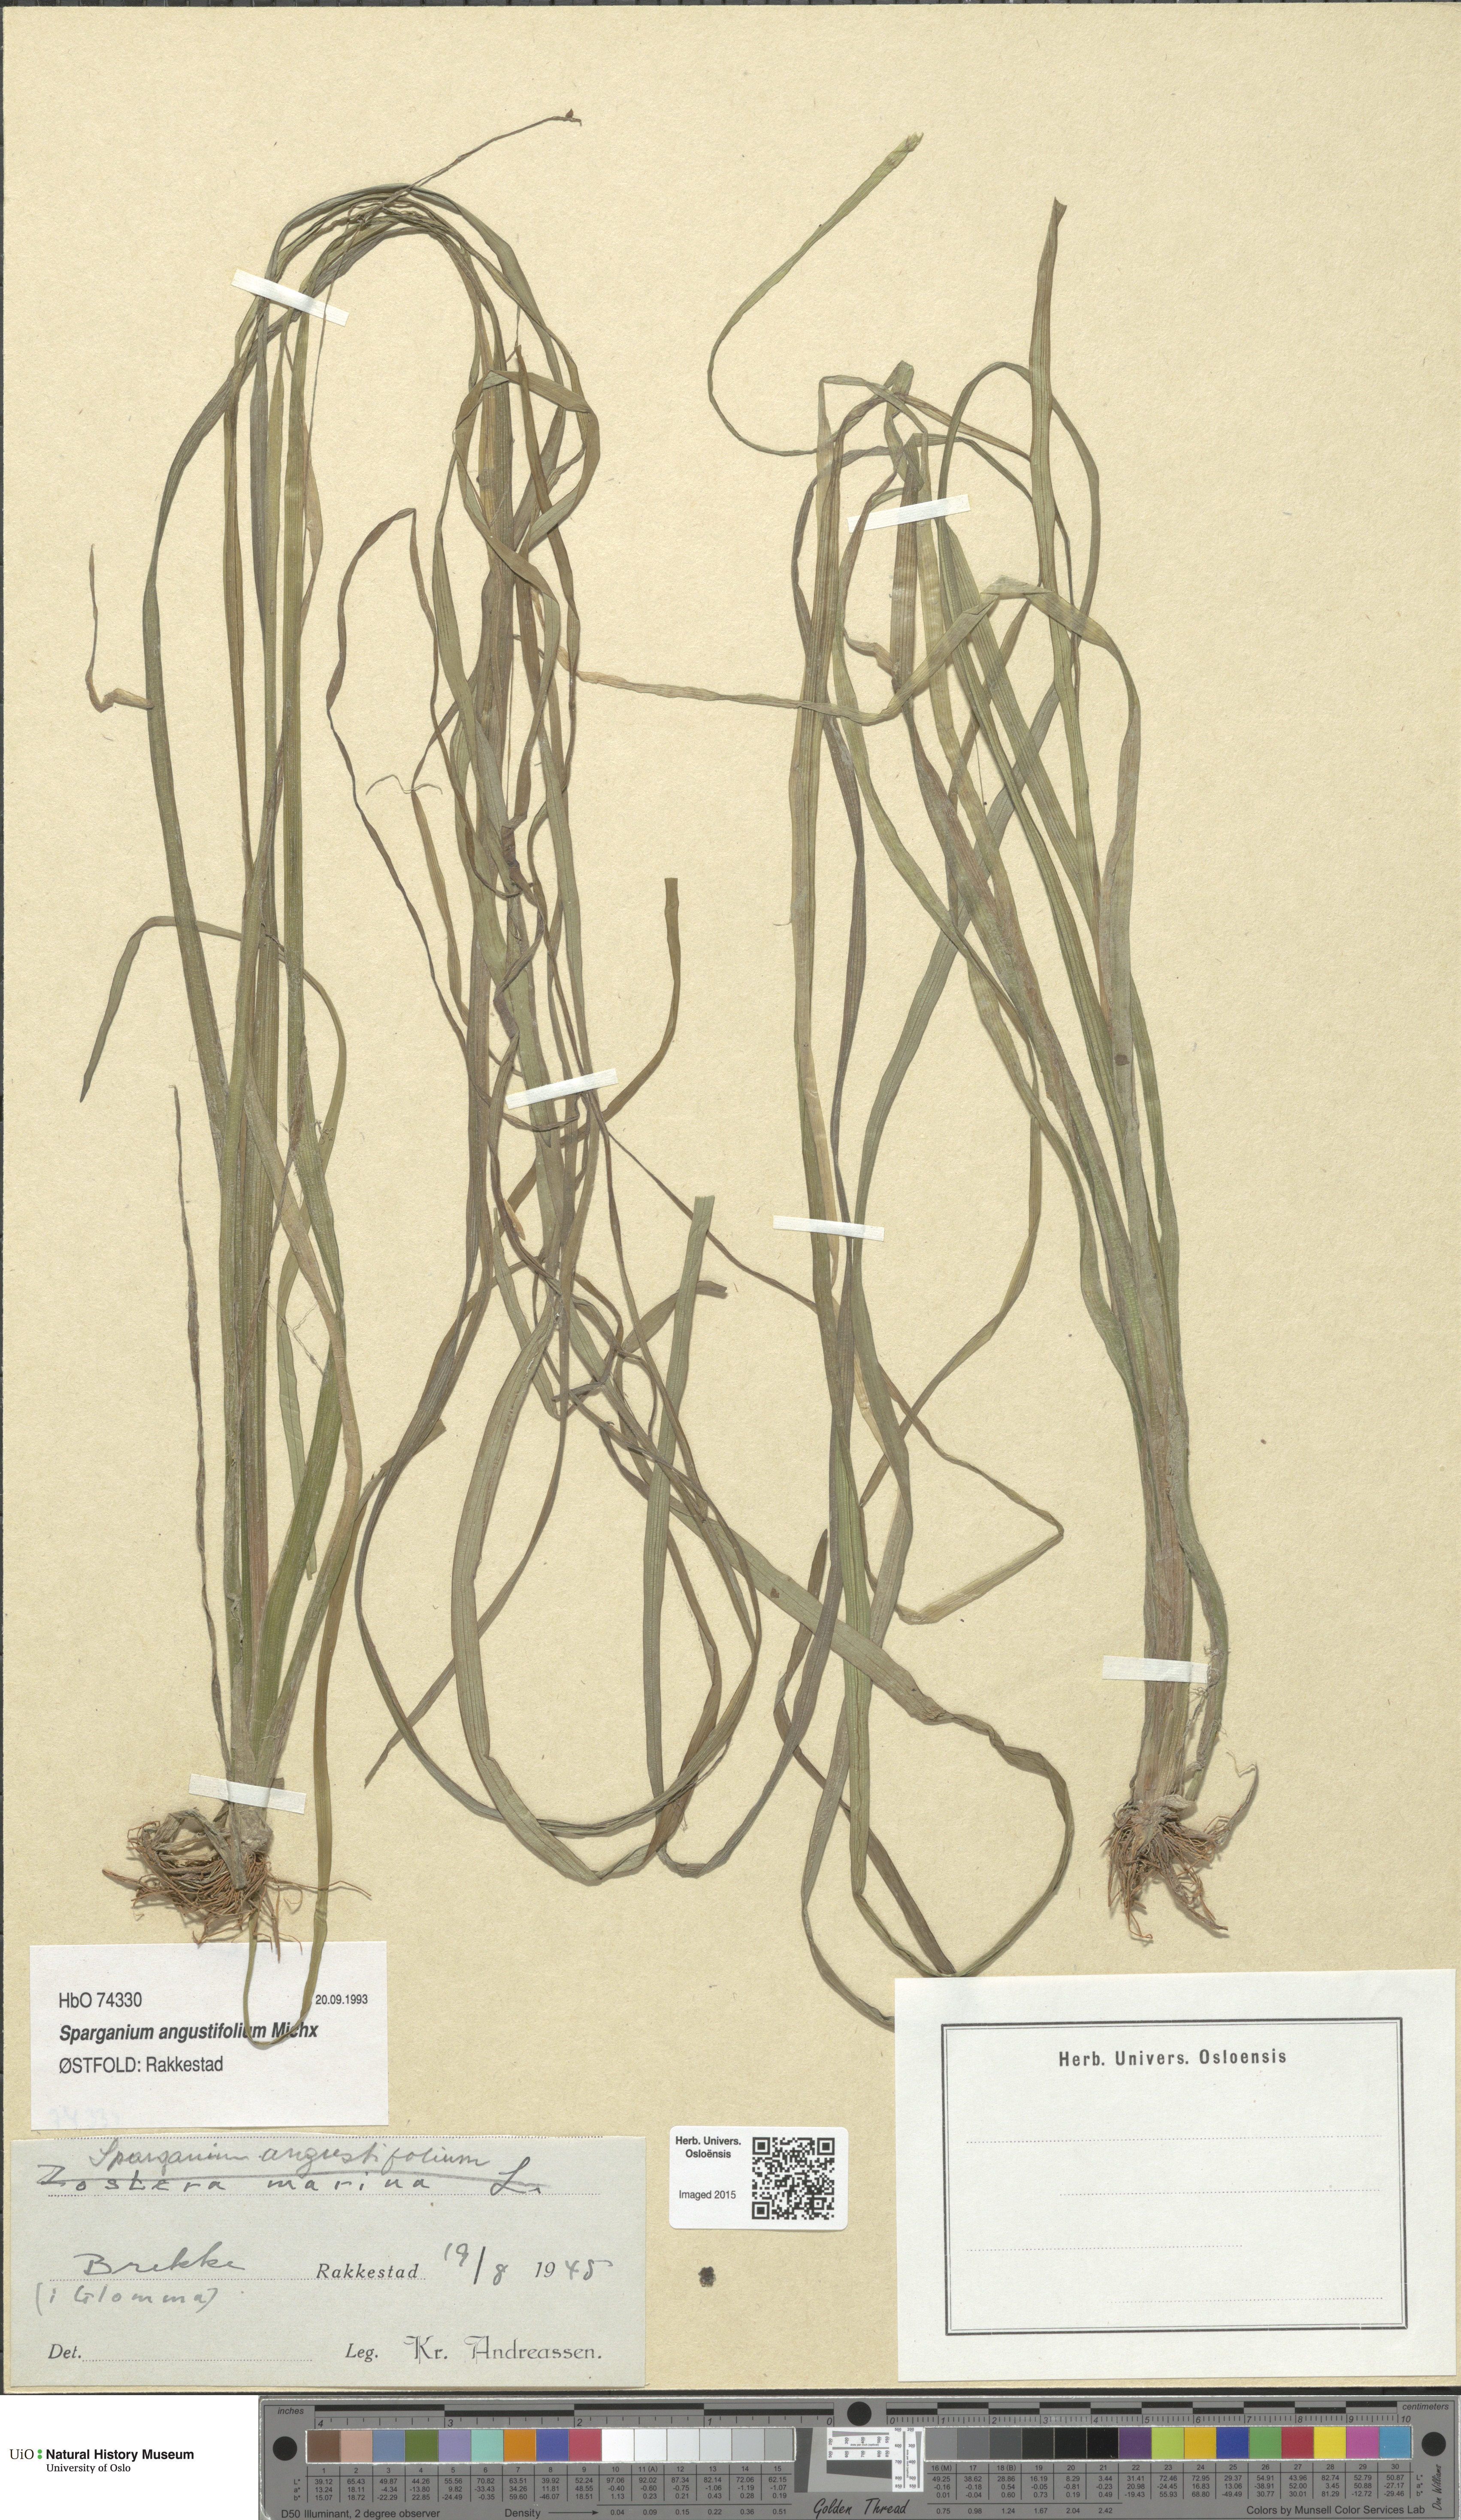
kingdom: Plantae
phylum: Tracheophyta
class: Liliopsida
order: Poales
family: Typhaceae
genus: Sparganium
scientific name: Sparganium angustifolium
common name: Floating bur-reed
